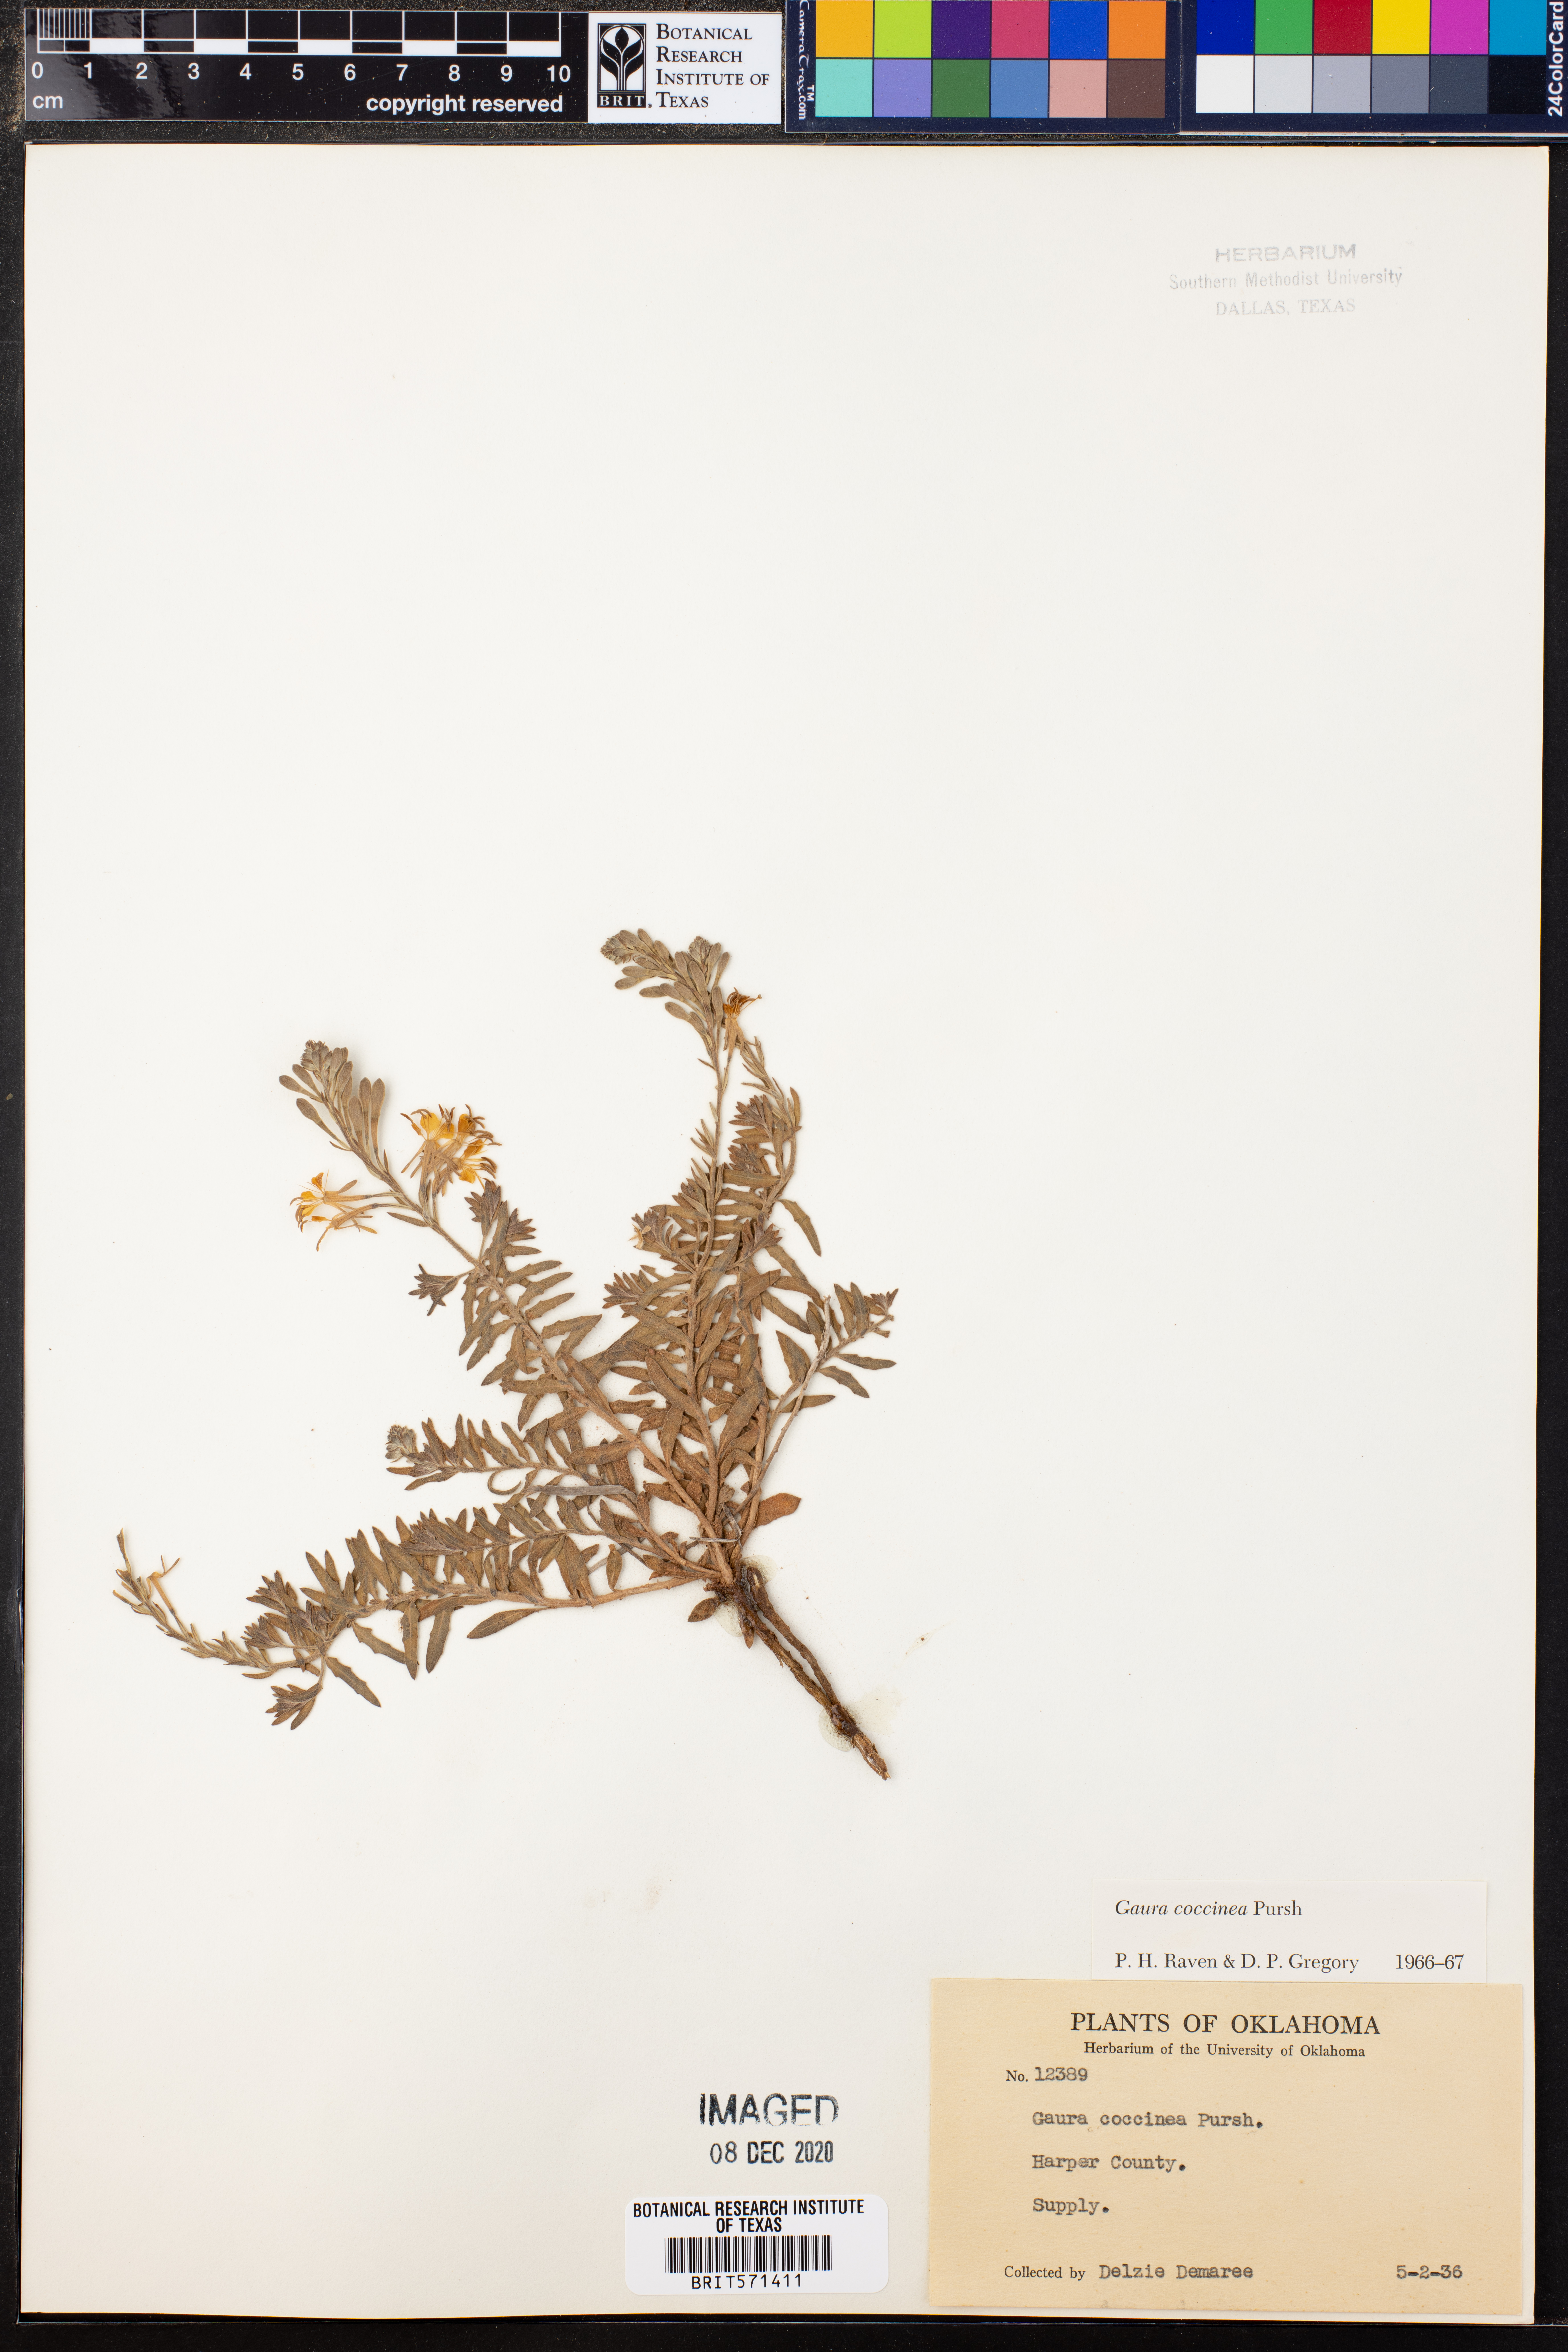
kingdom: Plantae
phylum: Tracheophyta
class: Magnoliopsida
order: Myrtales
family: Onagraceae
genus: Oenothera
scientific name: Oenothera suffrutescens
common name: Scarlet beeblossom
